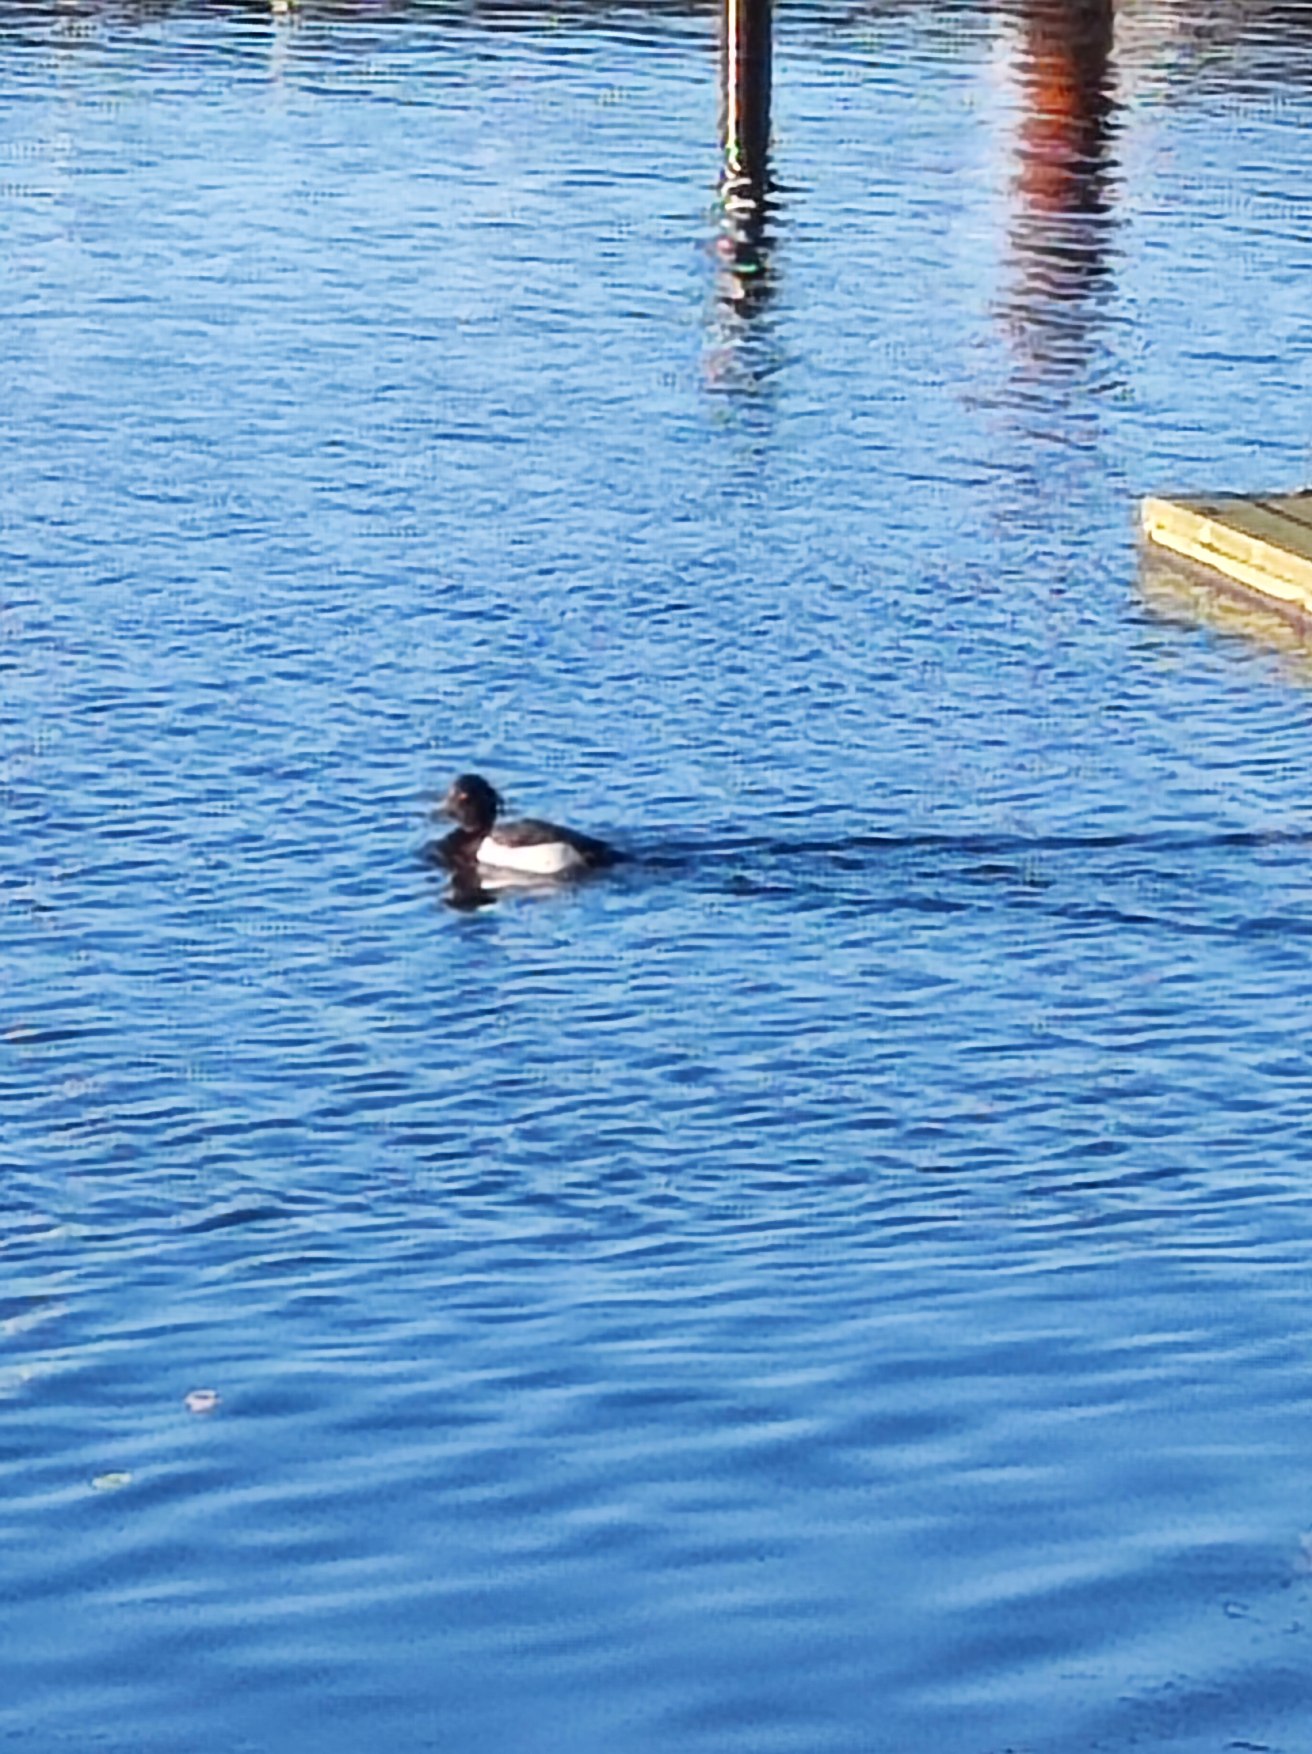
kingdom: Animalia
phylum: Chordata
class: Aves
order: Anseriformes
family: Anatidae
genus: Aythya
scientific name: Aythya fuligula
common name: Troldand
